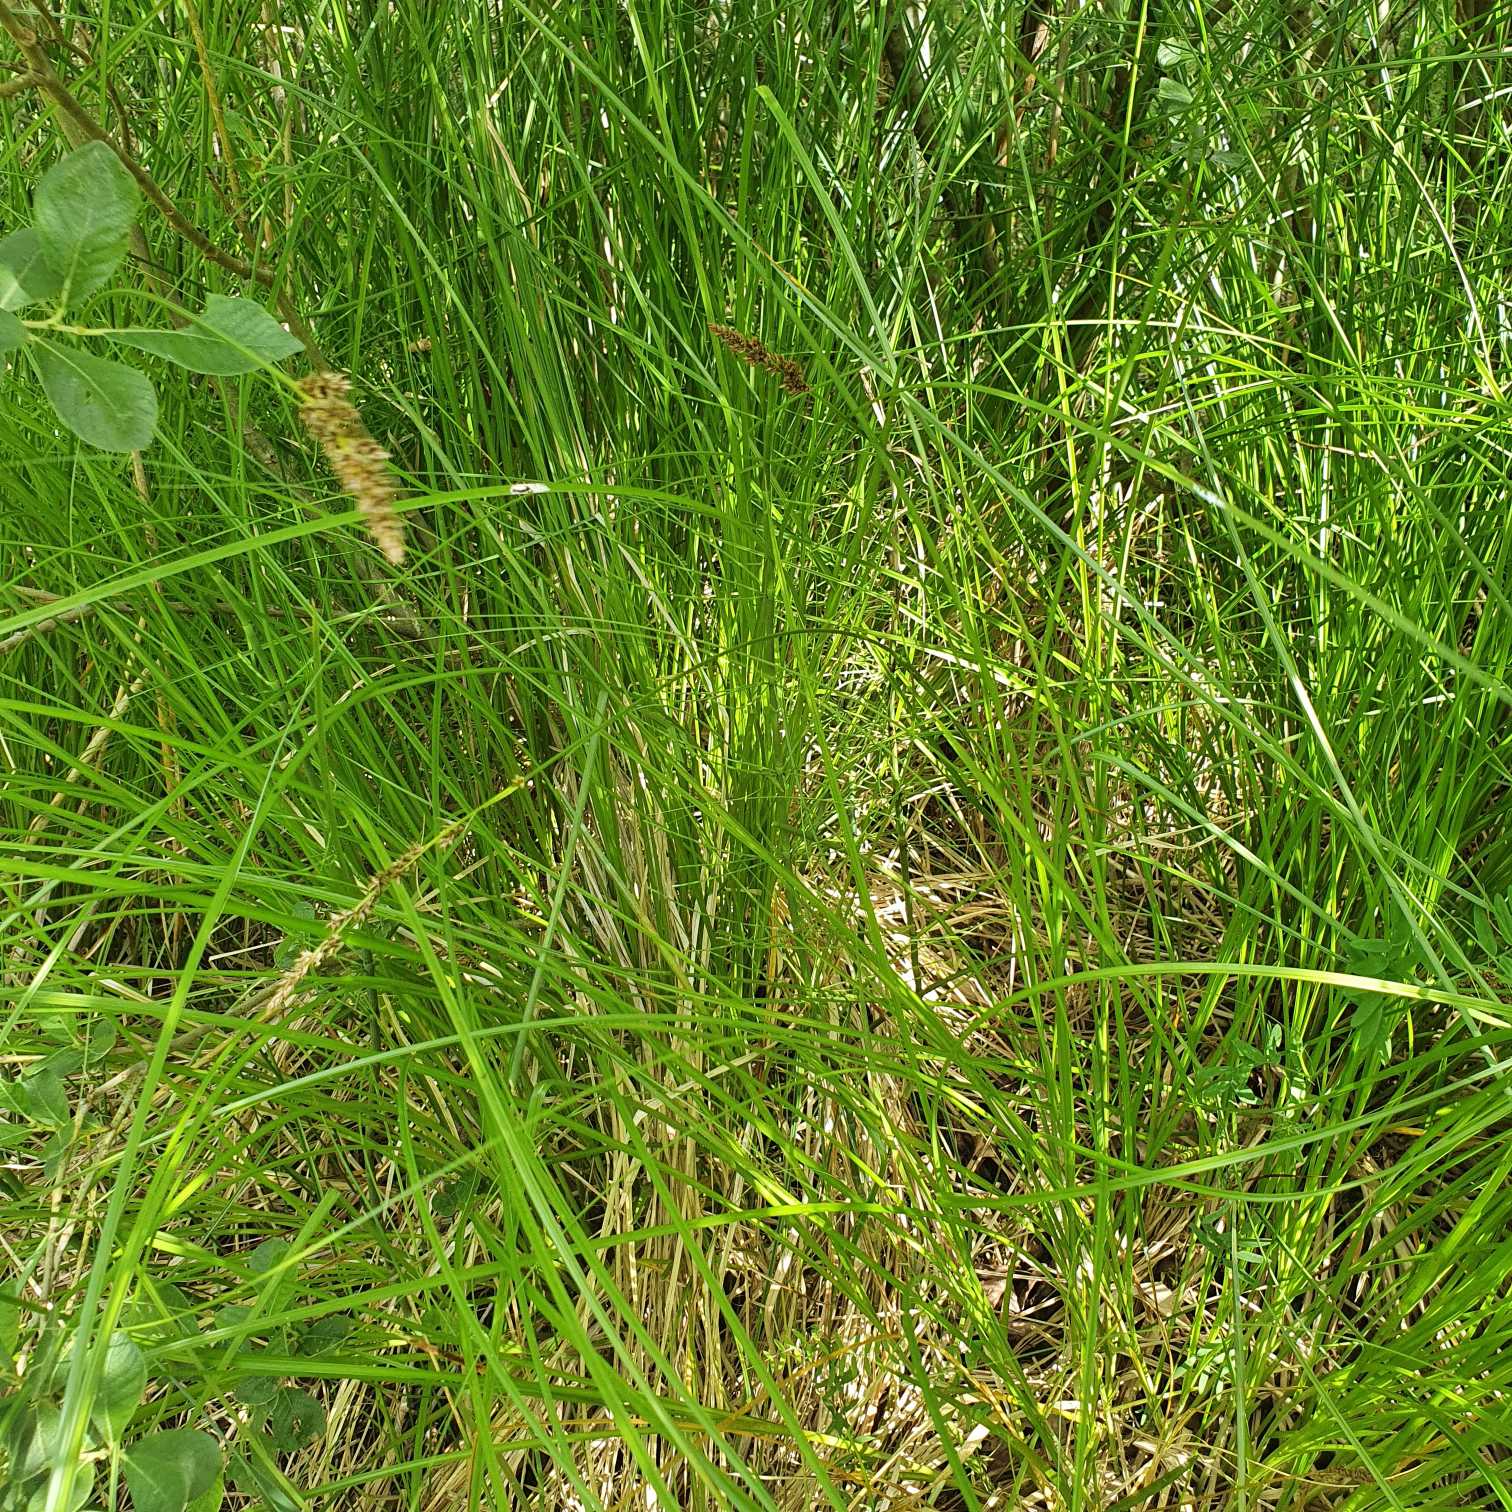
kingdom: Plantae
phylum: Tracheophyta
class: Liliopsida
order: Poales
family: Cyperaceae
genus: Carex
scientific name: Carex paniculata
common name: Top-star
